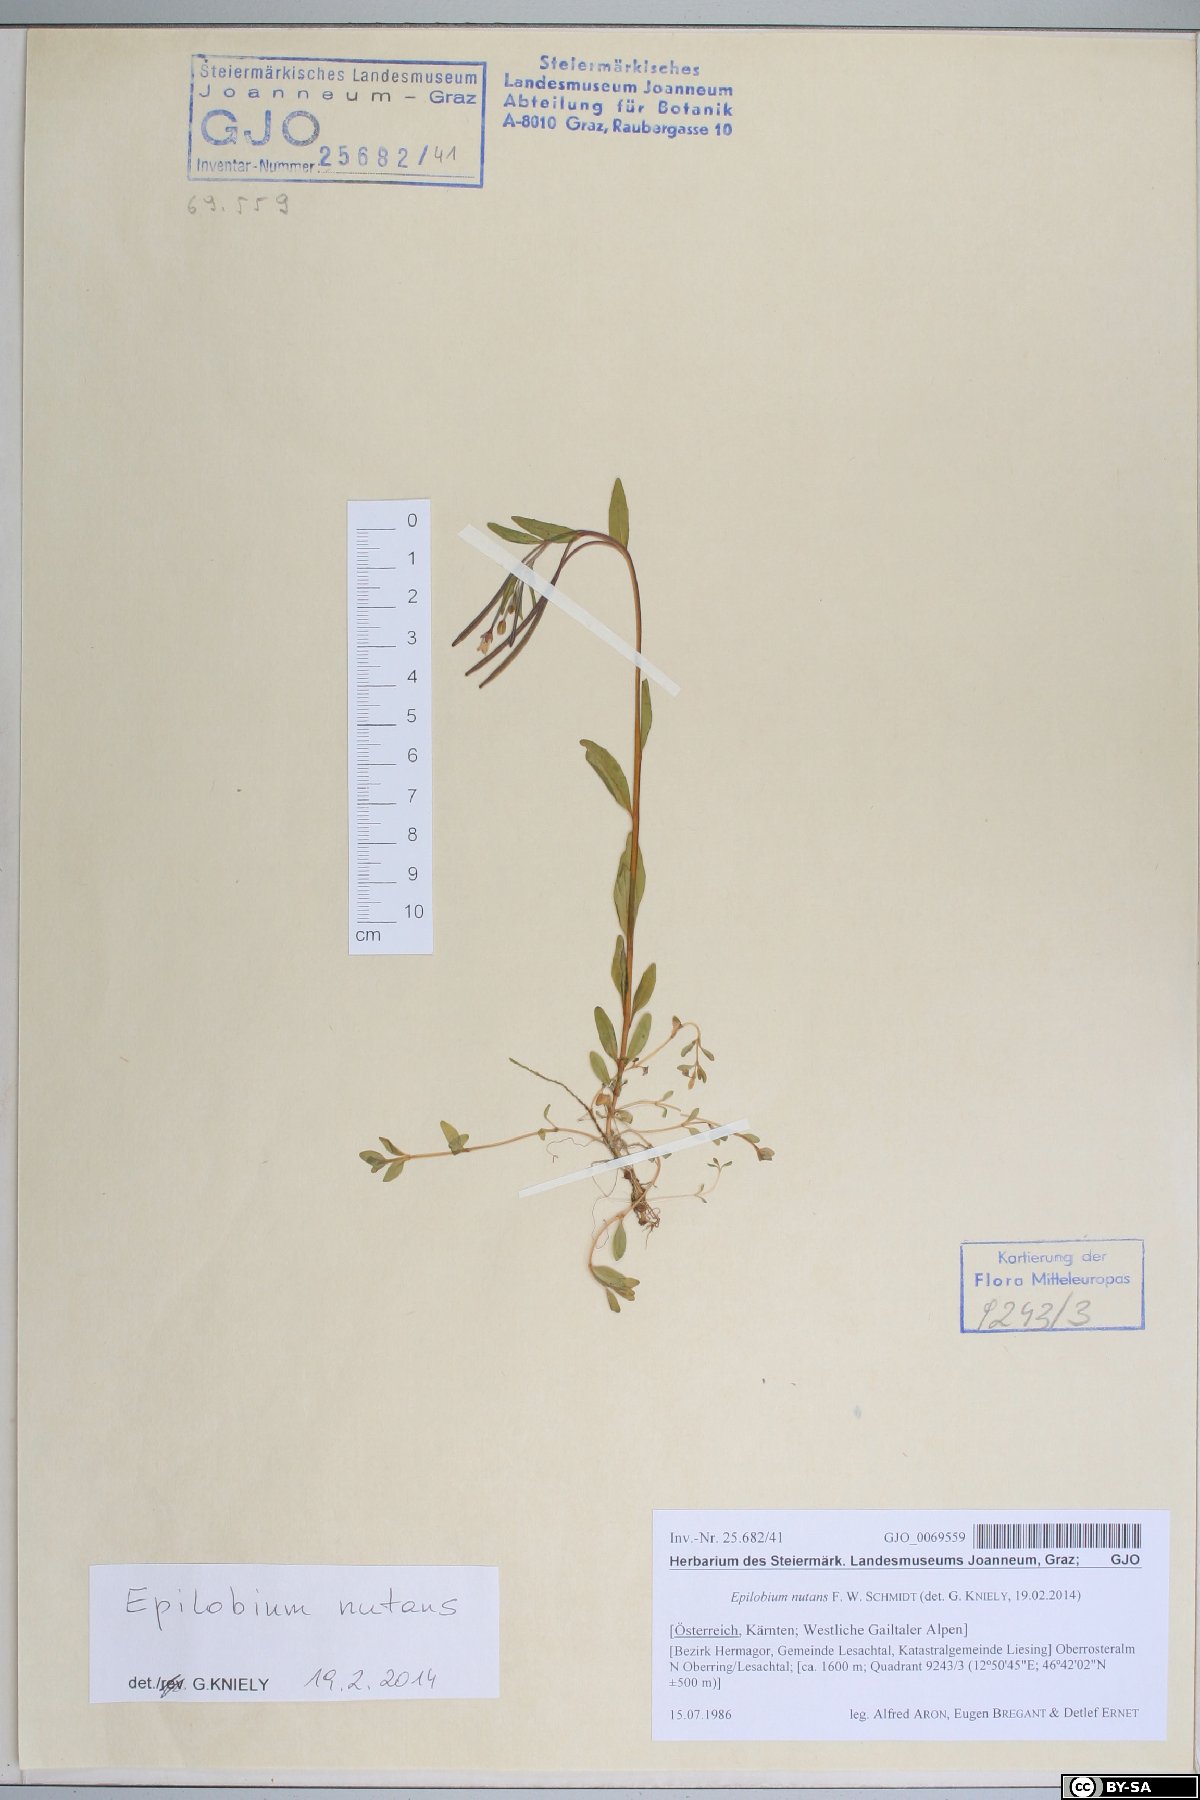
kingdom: Plantae
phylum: Tracheophyta
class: Magnoliopsida
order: Myrtales
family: Onagraceae
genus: Epilobium
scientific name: Epilobium nutans
